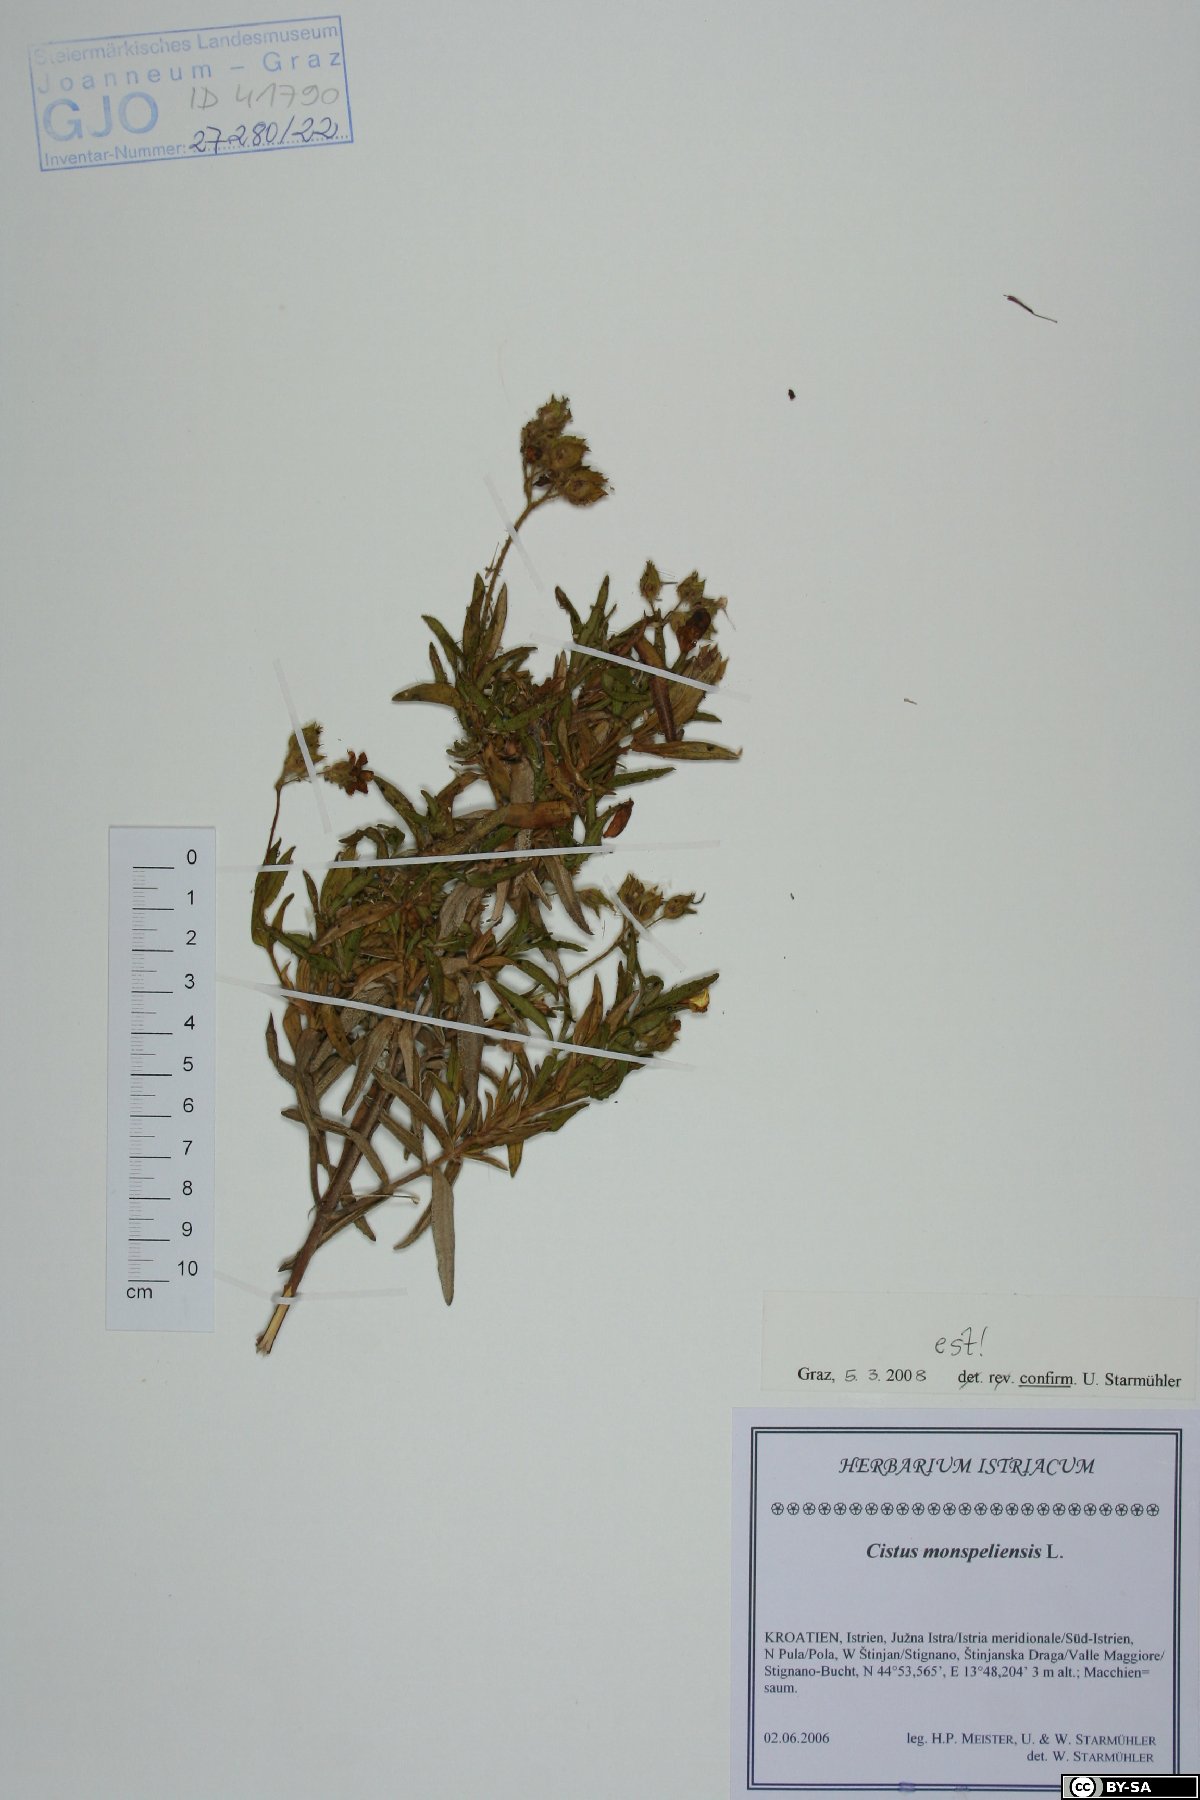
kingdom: Plantae
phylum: Tracheophyta
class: Magnoliopsida
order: Malvales
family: Cistaceae
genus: Cistus
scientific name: Cistus monspeliensis
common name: Montpelier cistus
